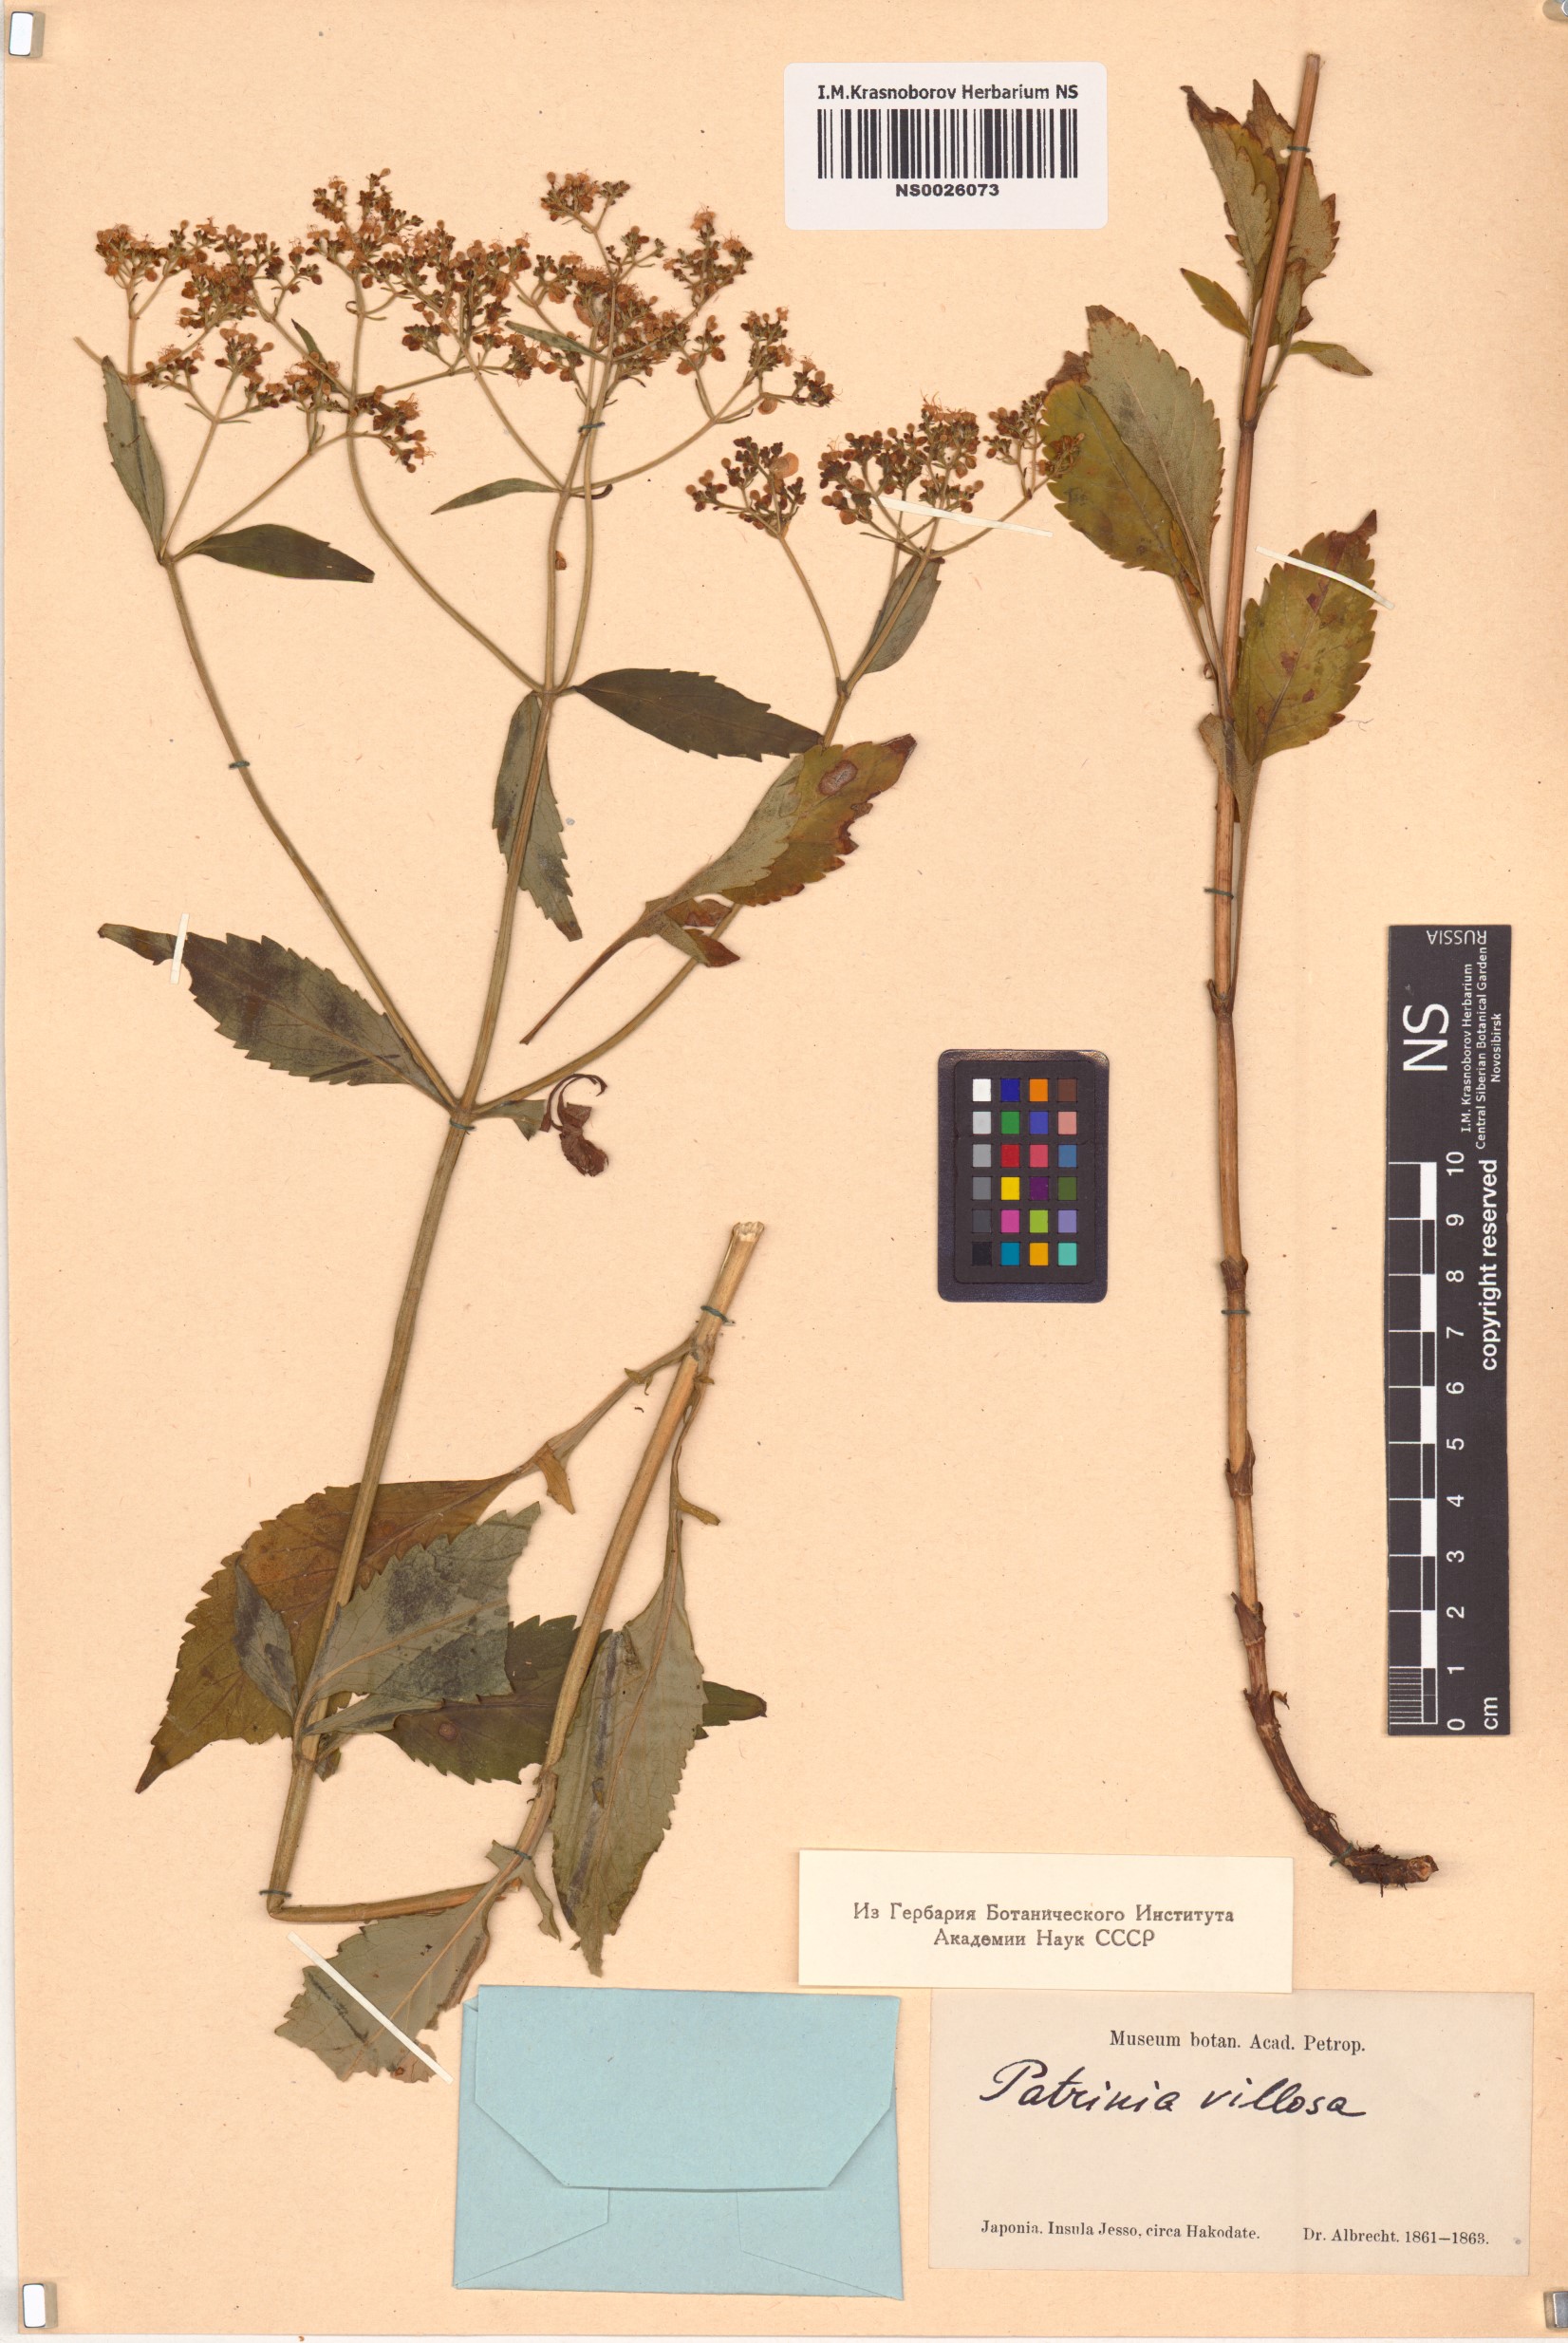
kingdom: Plantae
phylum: Tracheophyta
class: Magnoliopsida
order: Dipsacales
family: Caprifoliaceae
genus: Patrinia
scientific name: Patrinia villosa
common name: Patrinia
